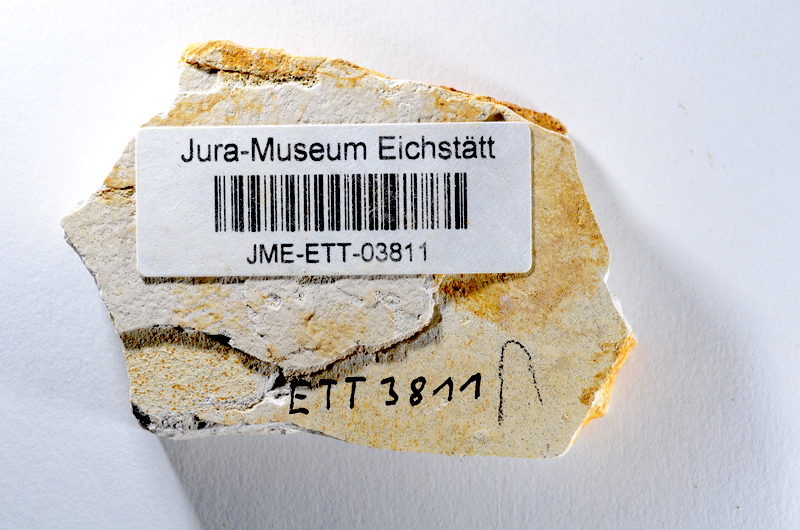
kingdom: Animalia
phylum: Chordata
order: Salmoniformes
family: Orthogonikleithridae
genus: Orthogonikleithrus
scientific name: Orthogonikleithrus hoelli
